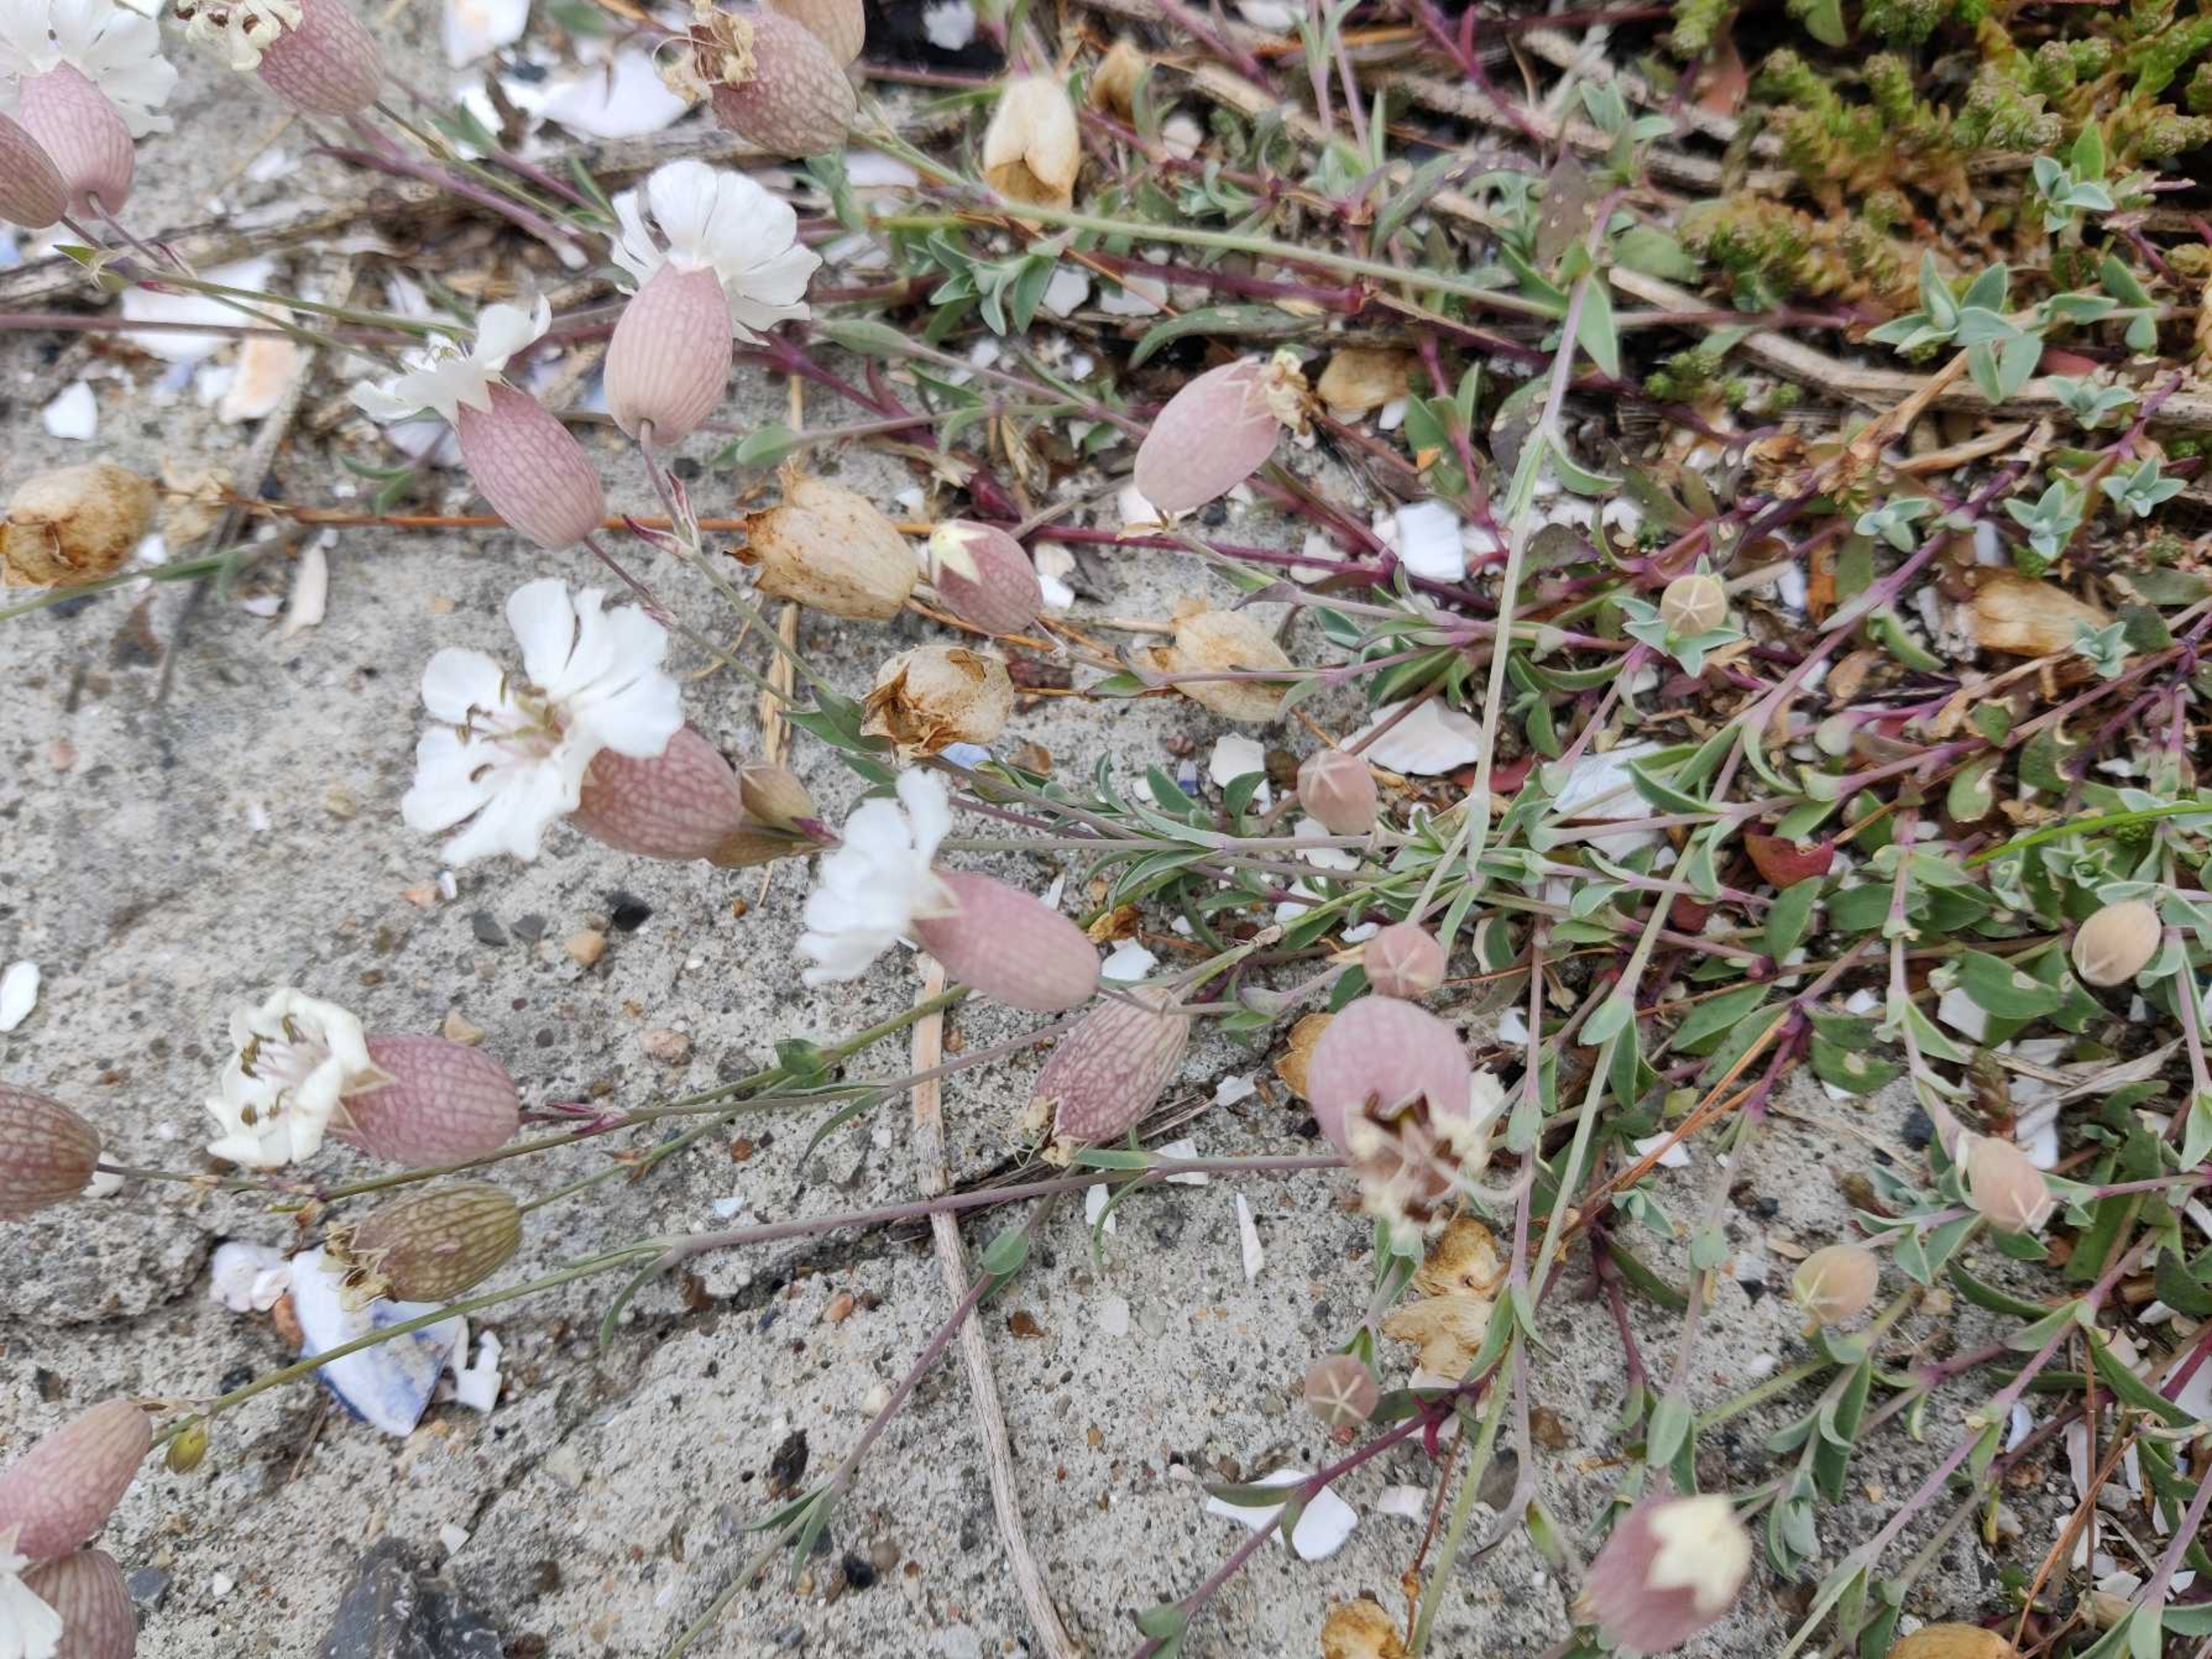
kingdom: Plantae
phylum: Tracheophyta
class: Magnoliopsida
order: Caryophyllales
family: Caryophyllaceae
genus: Silene
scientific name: Silene uniflora
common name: Strand-limurt
